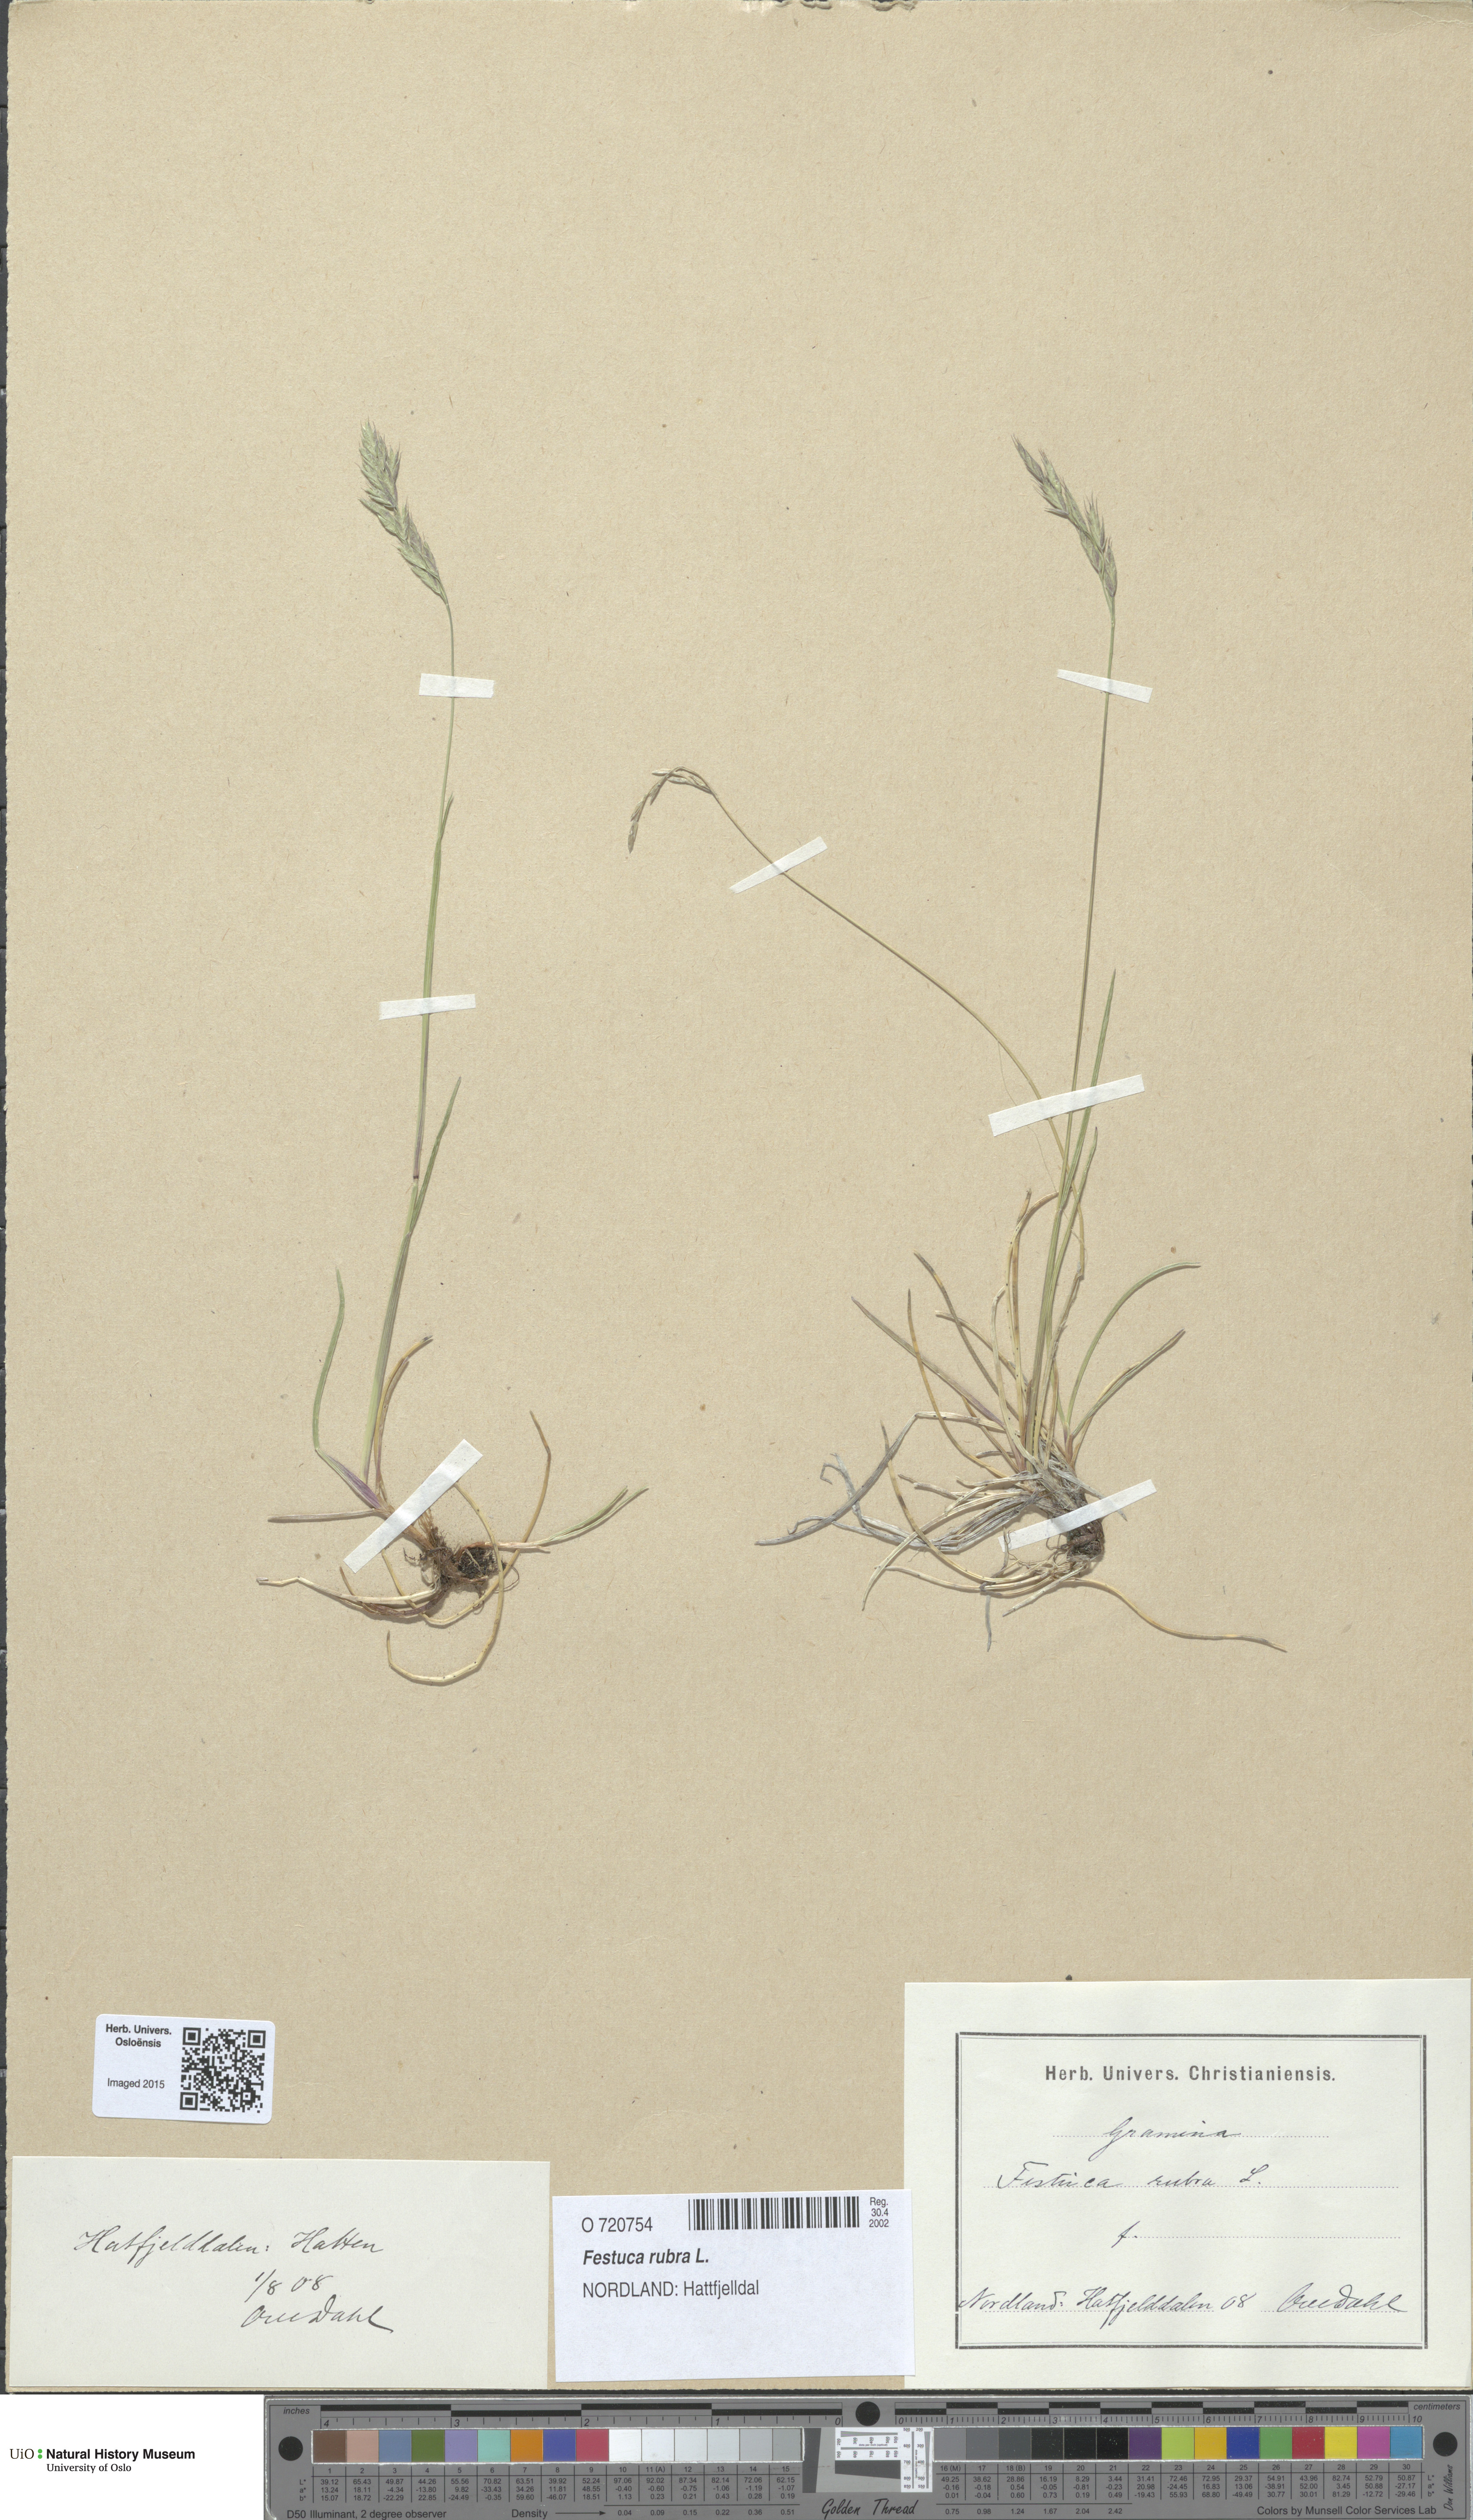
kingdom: Plantae
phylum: Tracheophyta
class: Liliopsida
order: Poales
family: Poaceae
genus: Festuca
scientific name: Festuca rubra
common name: Red fescue
